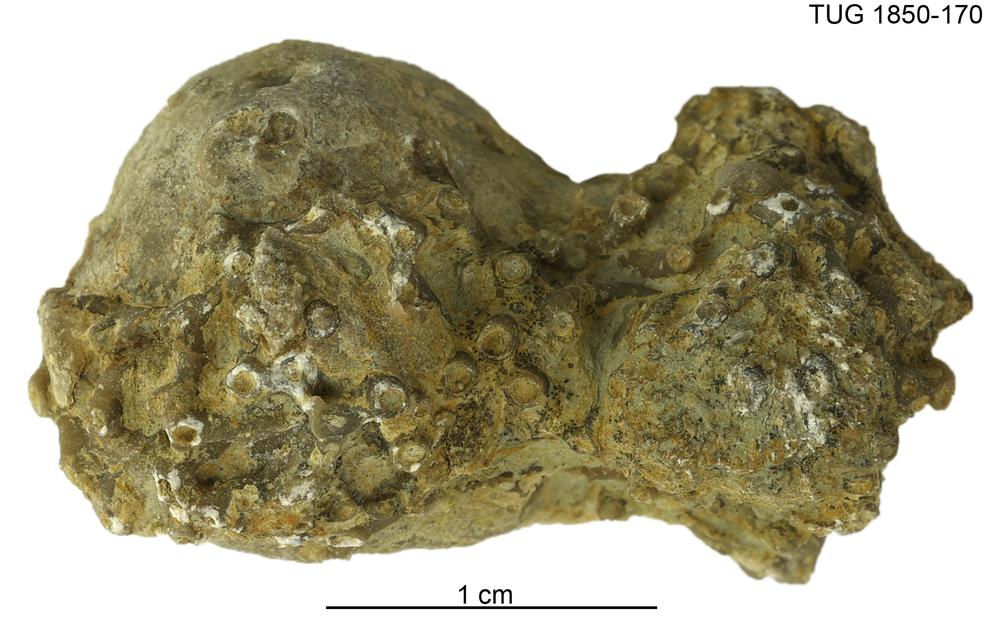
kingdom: Animalia
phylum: Cnidaria
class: Anthozoa
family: Auloporidae
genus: Aulopora
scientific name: Aulopora
